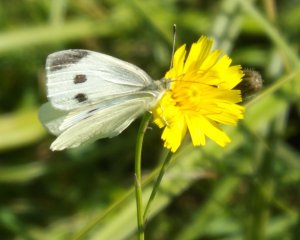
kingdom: Animalia
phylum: Arthropoda
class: Insecta
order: Lepidoptera
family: Pieridae
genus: Pieris
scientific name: Pieris rapae
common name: Cabbage White
